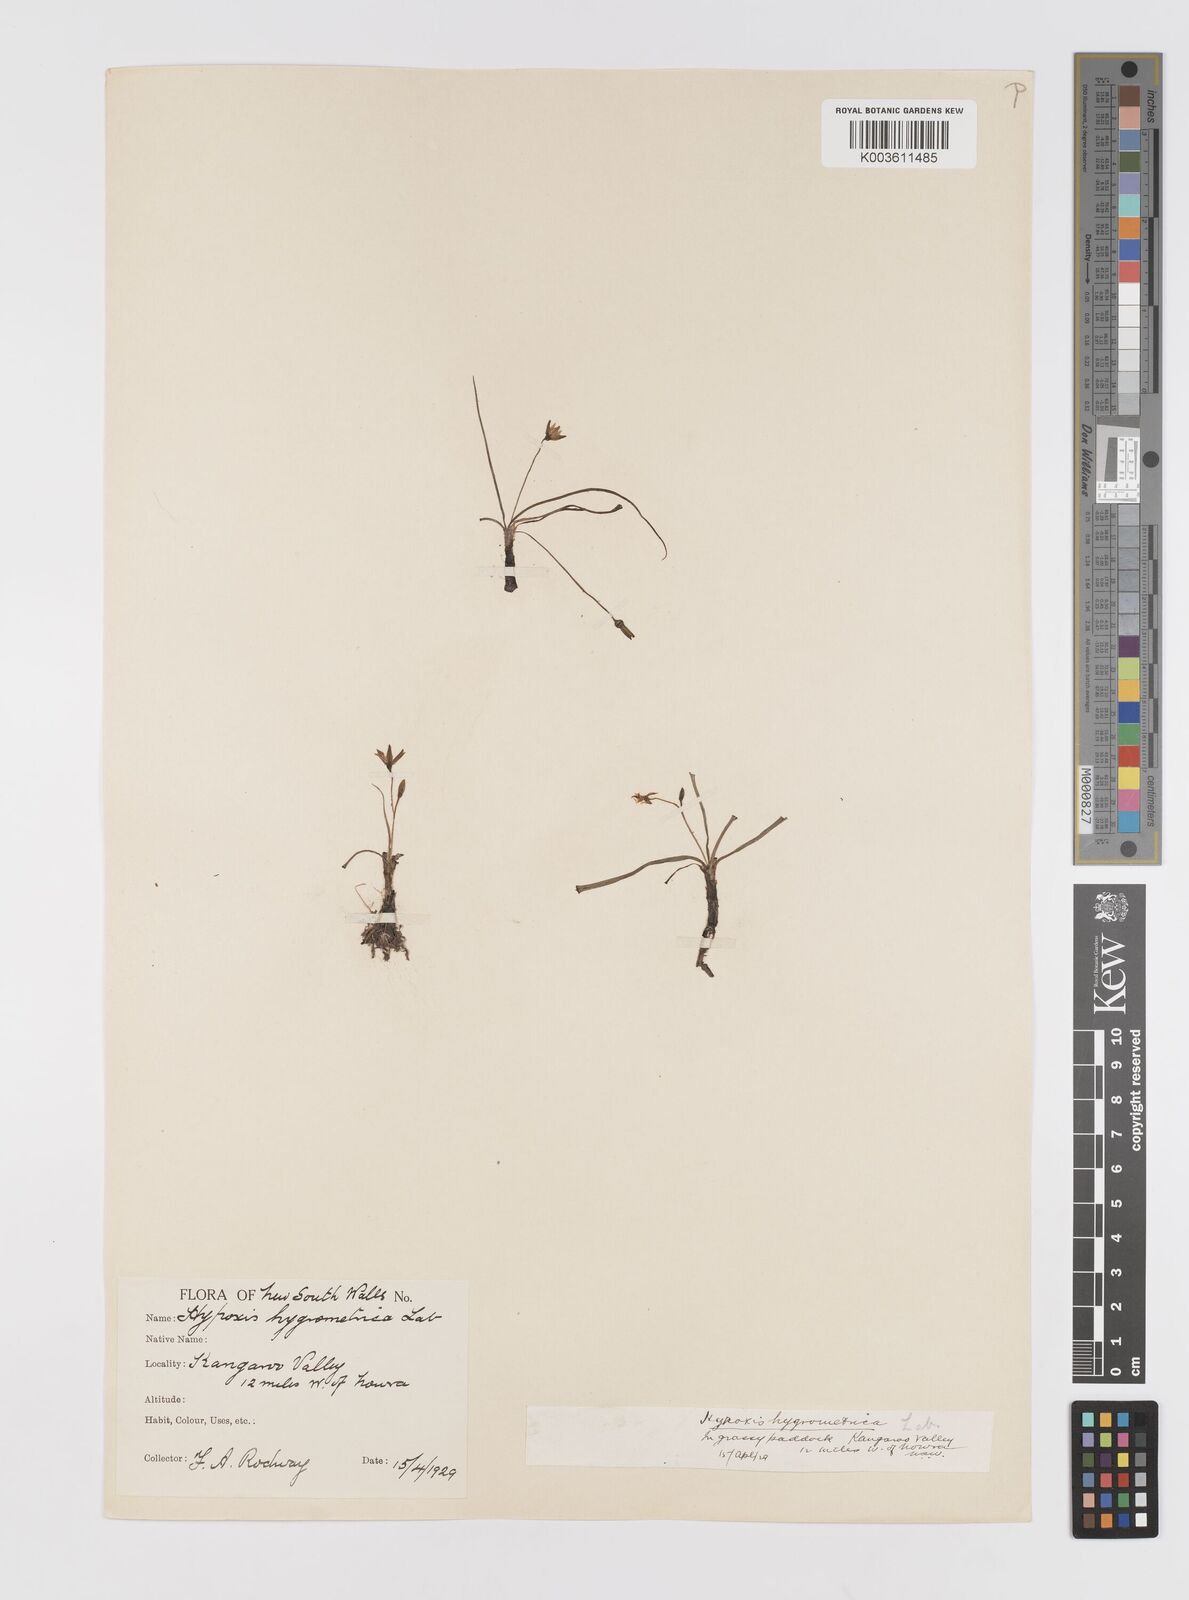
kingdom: Plantae
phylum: Tracheophyta
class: Liliopsida
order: Asparagales
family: Hypoxidaceae
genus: Hypoxis
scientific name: Hypoxis hygrometrica
